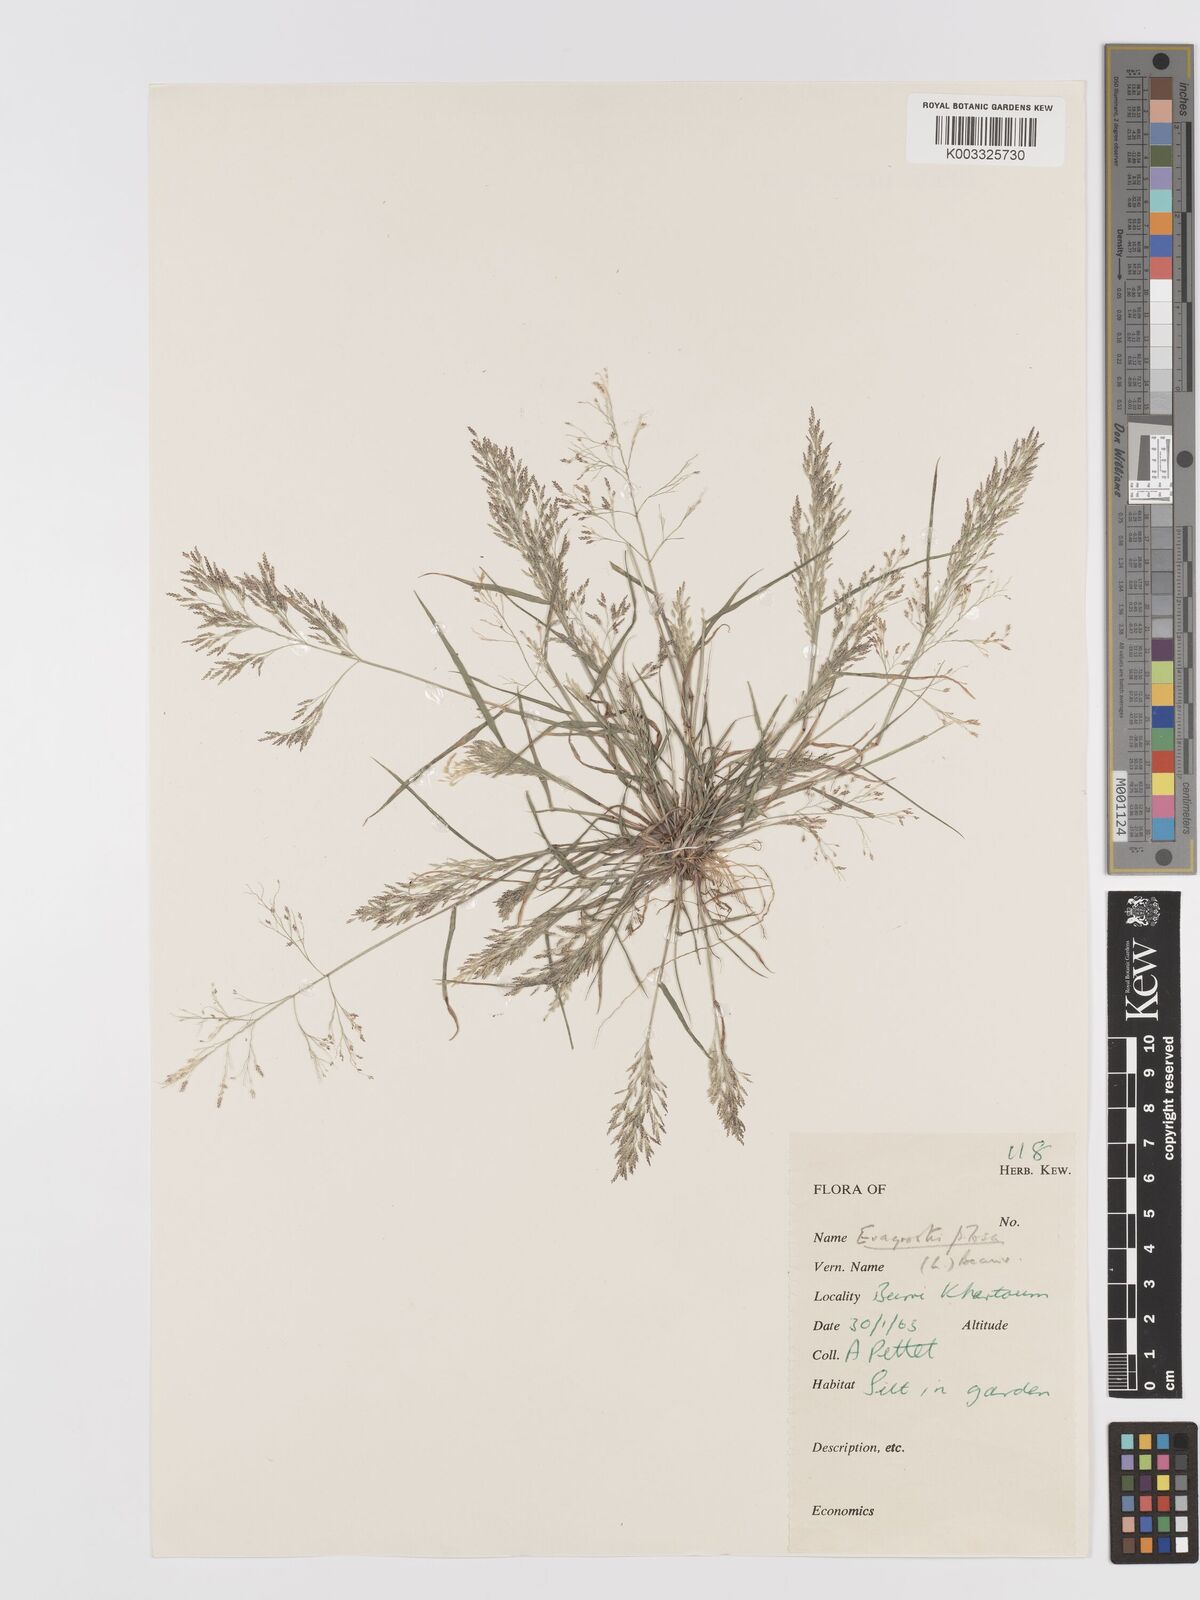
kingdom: Plantae
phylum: Tracheophyta
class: Liliopsida
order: Poales
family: Poaceae
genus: Eragrostis
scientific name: Eragrostis pilosa
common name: Indian lovegrass
